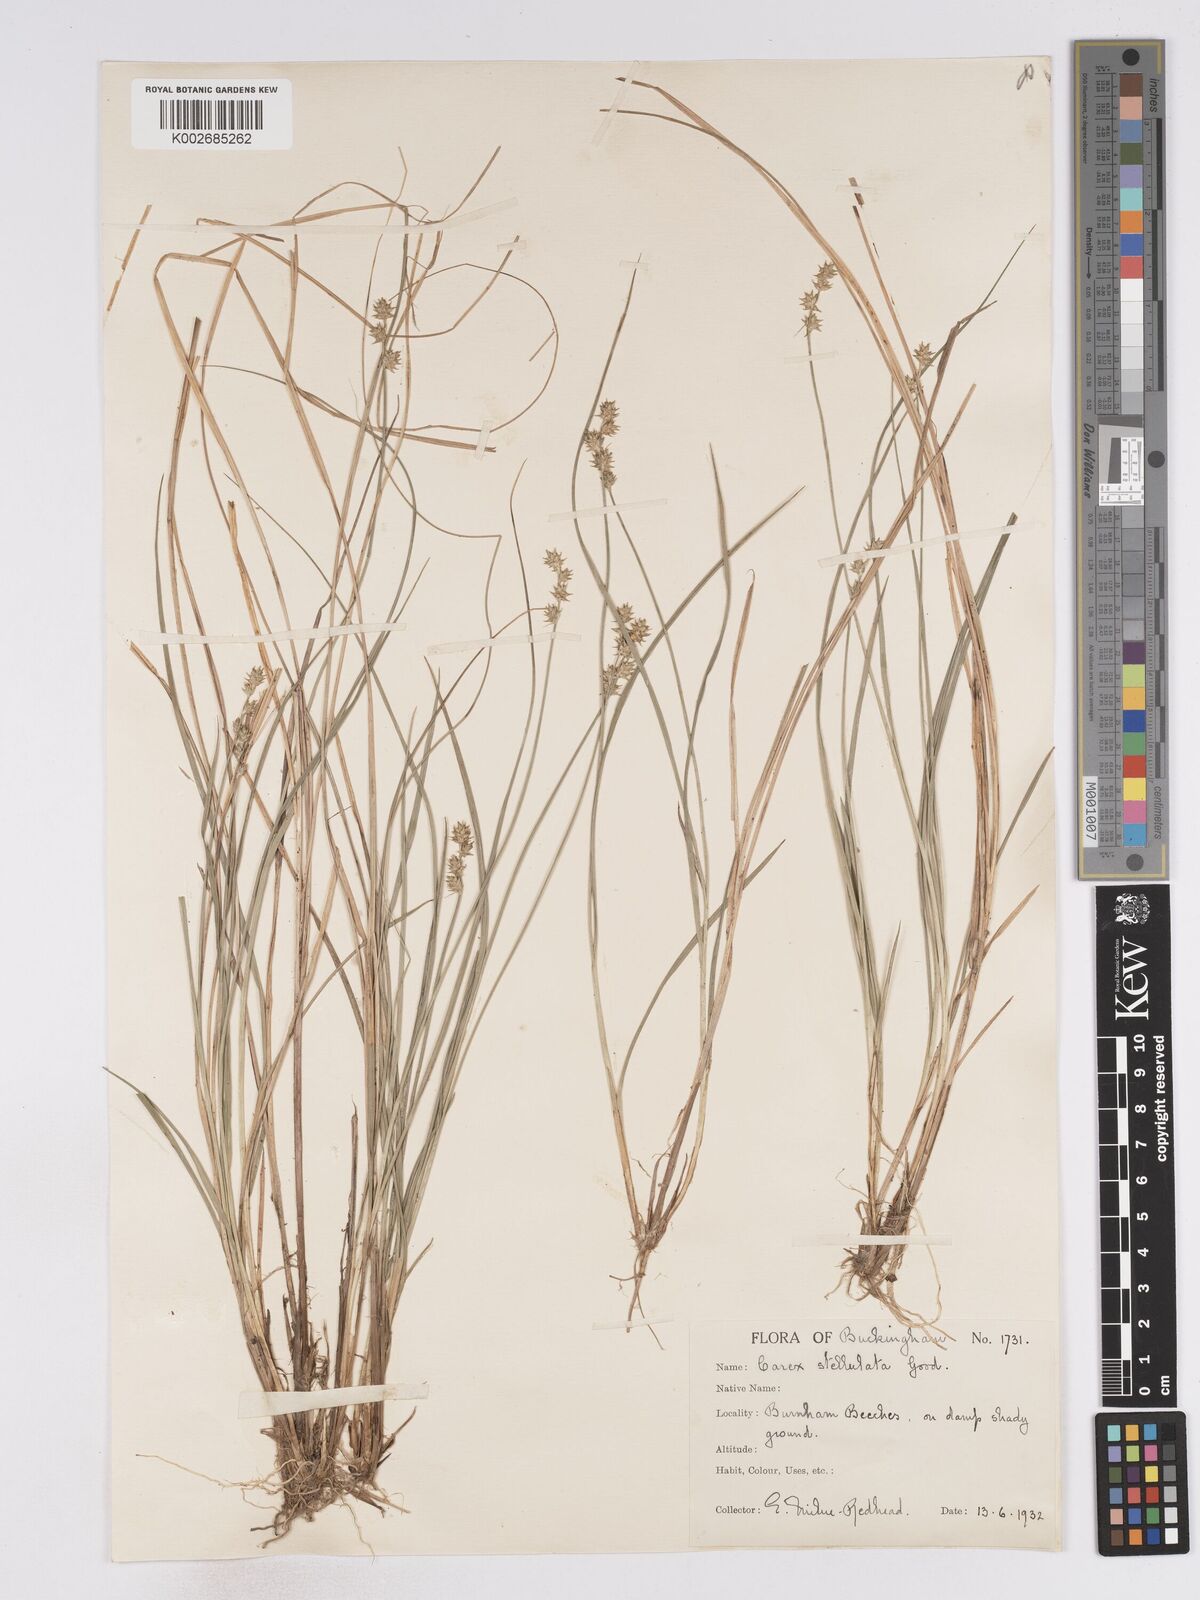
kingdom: Plantae
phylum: Tracheophyta
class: Liliopsida
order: Poales
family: Cyperaceae
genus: Carex
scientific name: Carex echinata
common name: Star sedge
